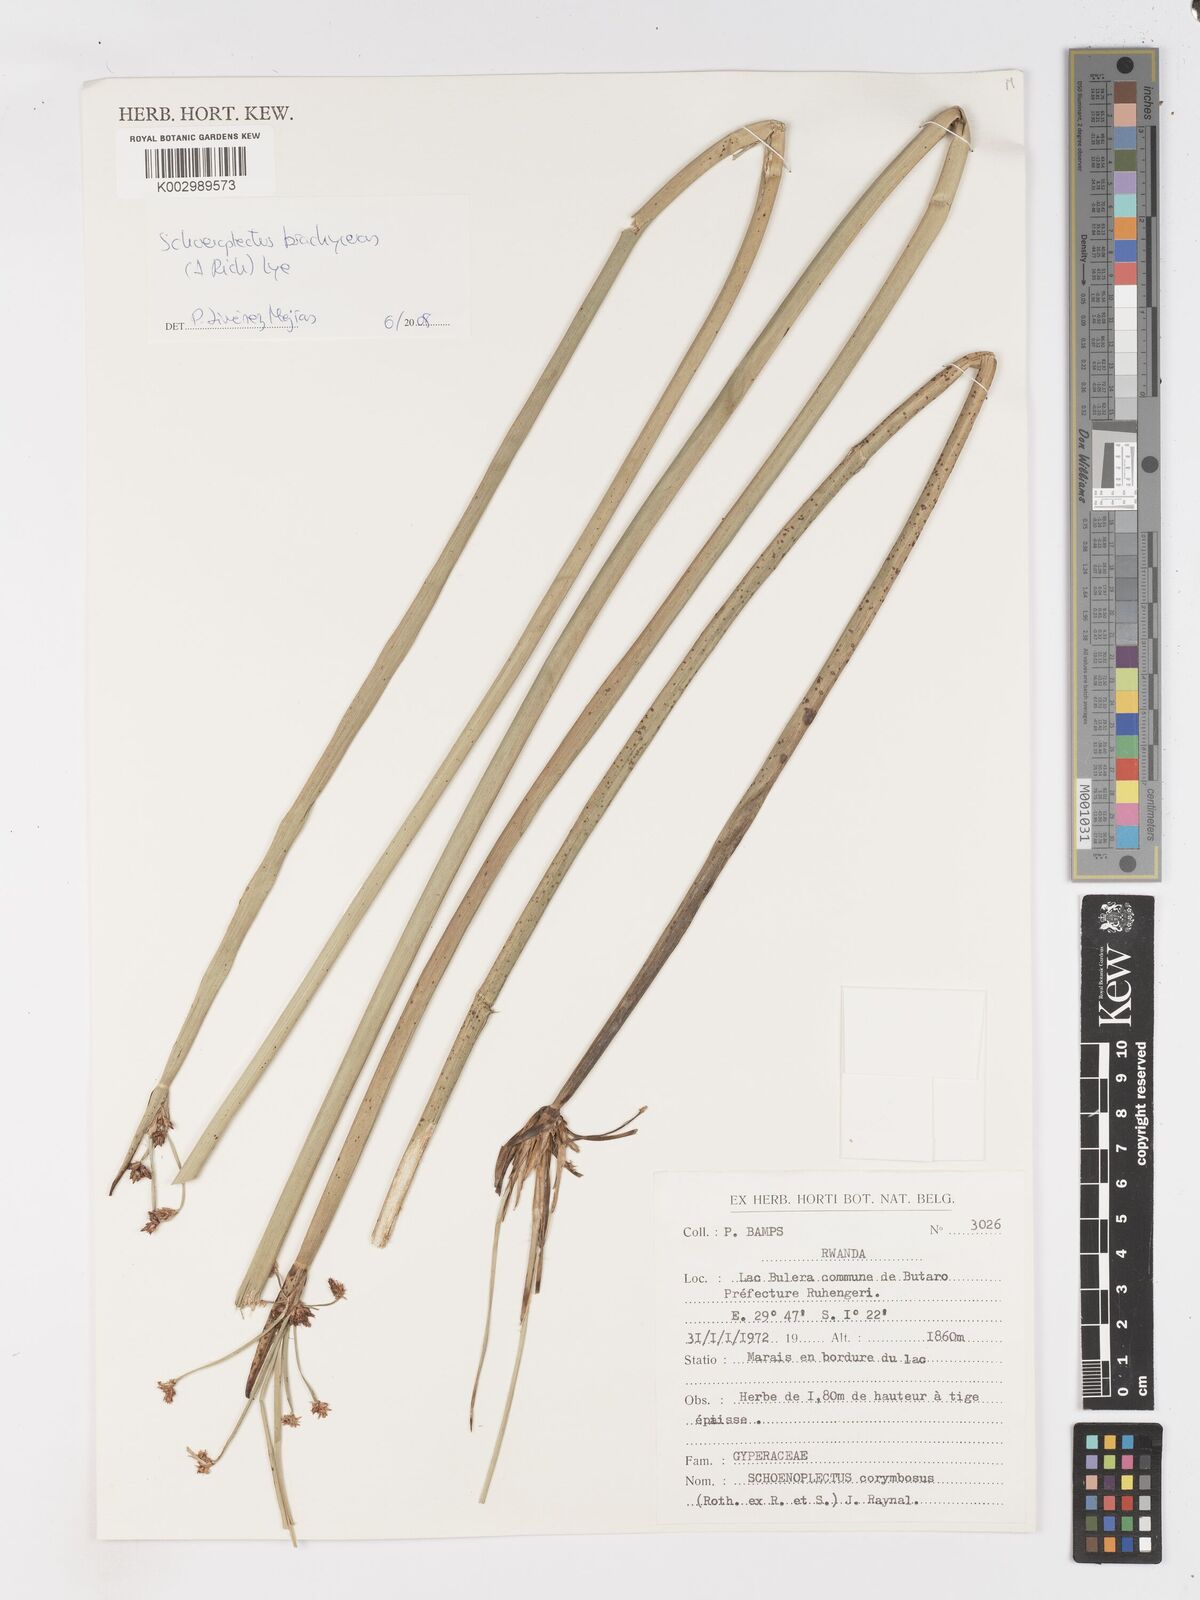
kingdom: Plantae
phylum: Tracheophyta
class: Liliopsida
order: Poales
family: Cyperaceae
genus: Schoenoplectiella
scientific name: Schoenoplectiella corymbosa
